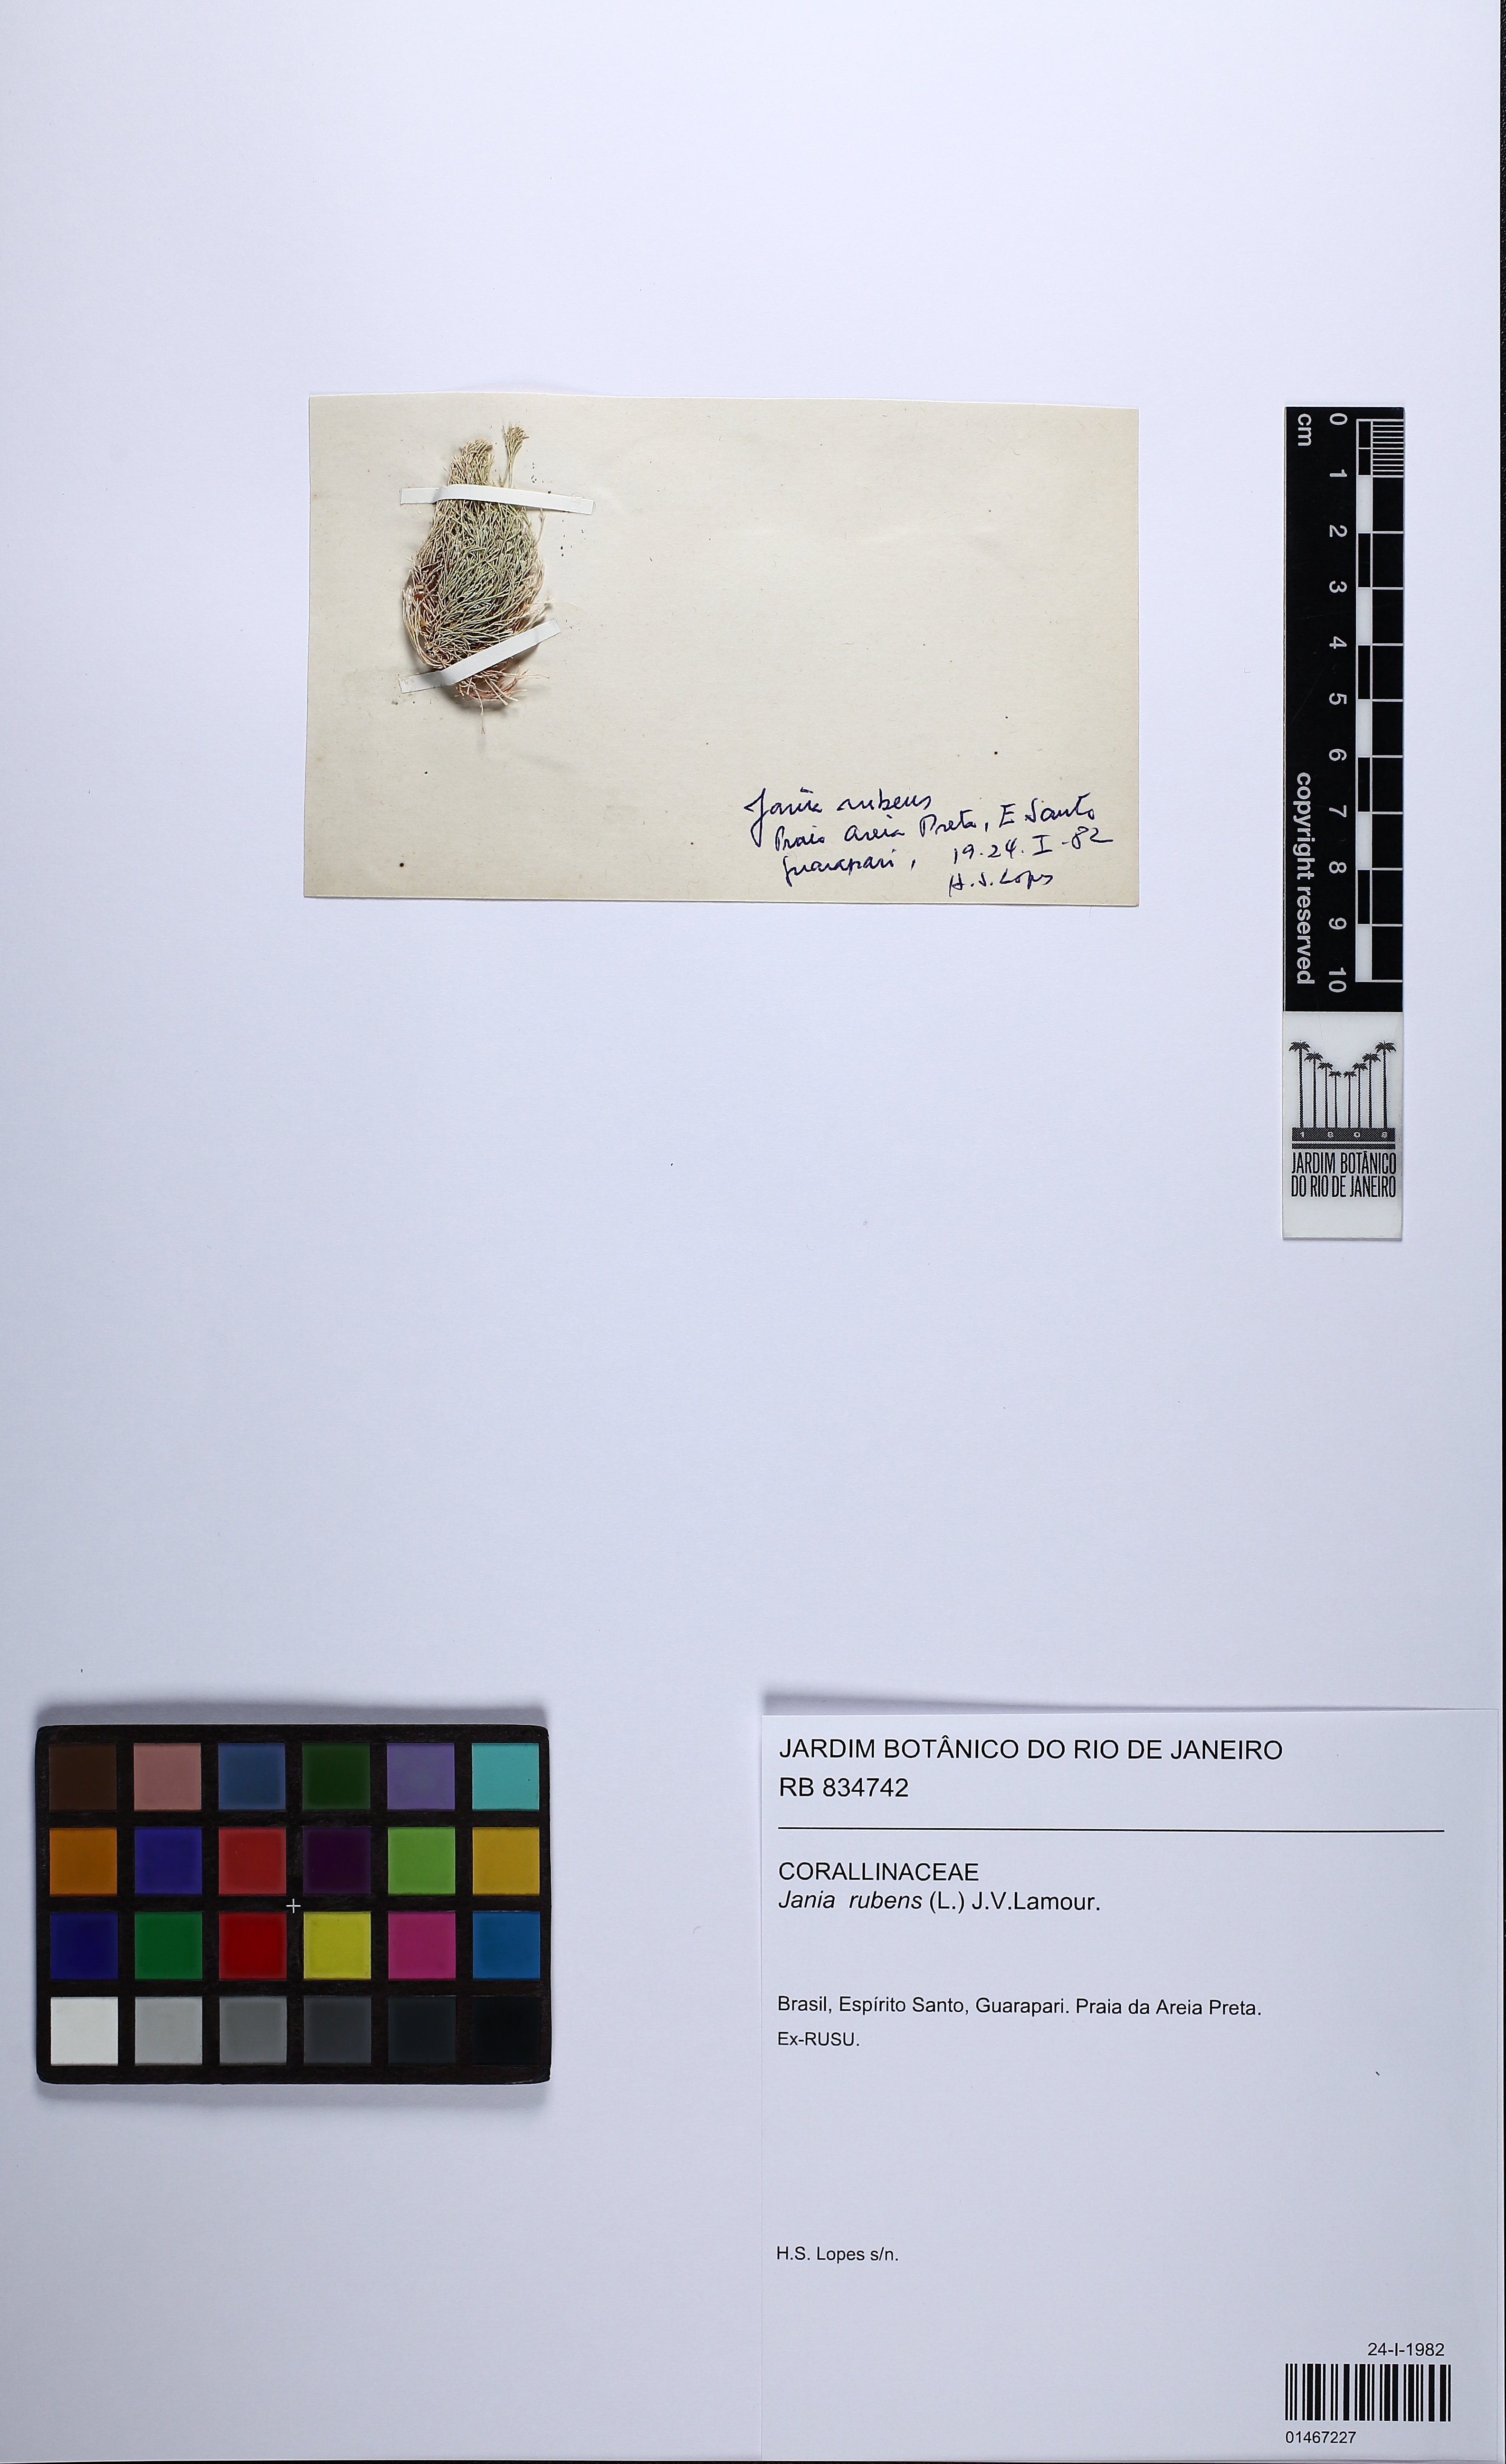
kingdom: Plantae
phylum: Rhodophyta
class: Florideophyceae
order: Corallinales
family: Corallinaceae
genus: Jania
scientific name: Jania rubens
